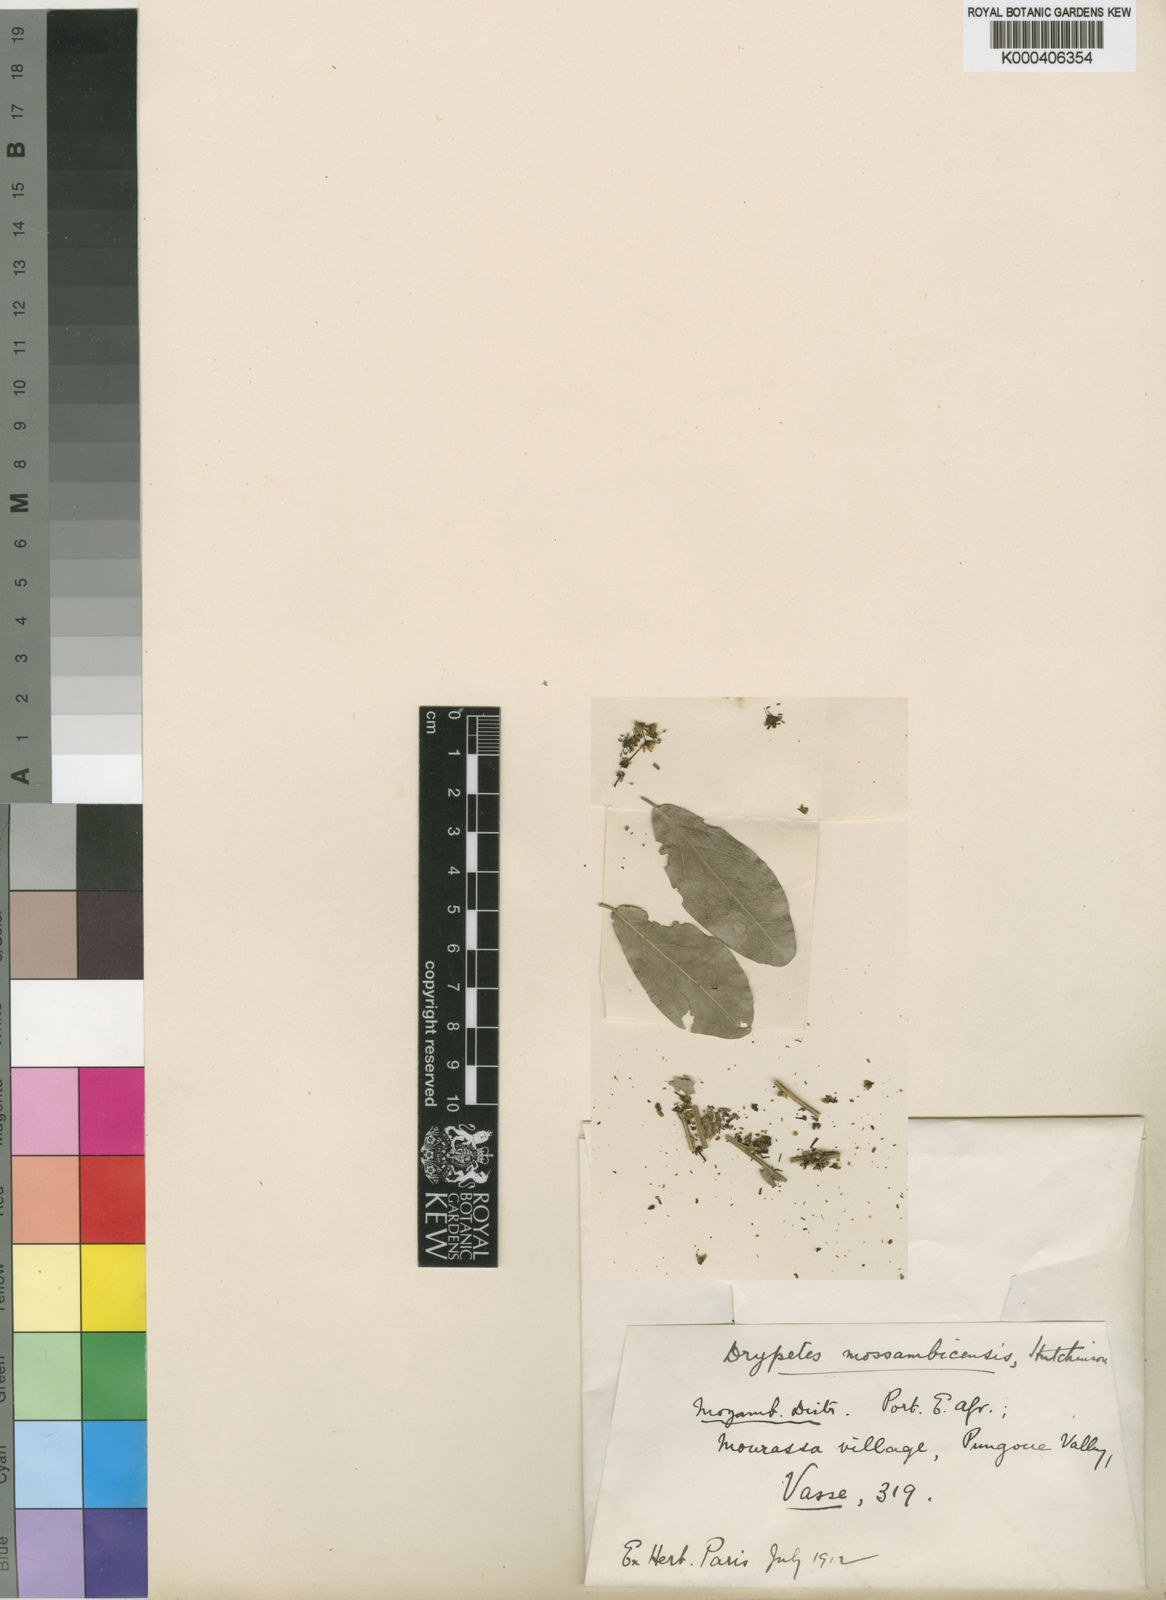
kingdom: Plantae
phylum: Tracheophyta
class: Magnoliopsida
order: Malpighiales
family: Putranjivaceae
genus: Drypetes
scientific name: Drypetes mossambicensis
